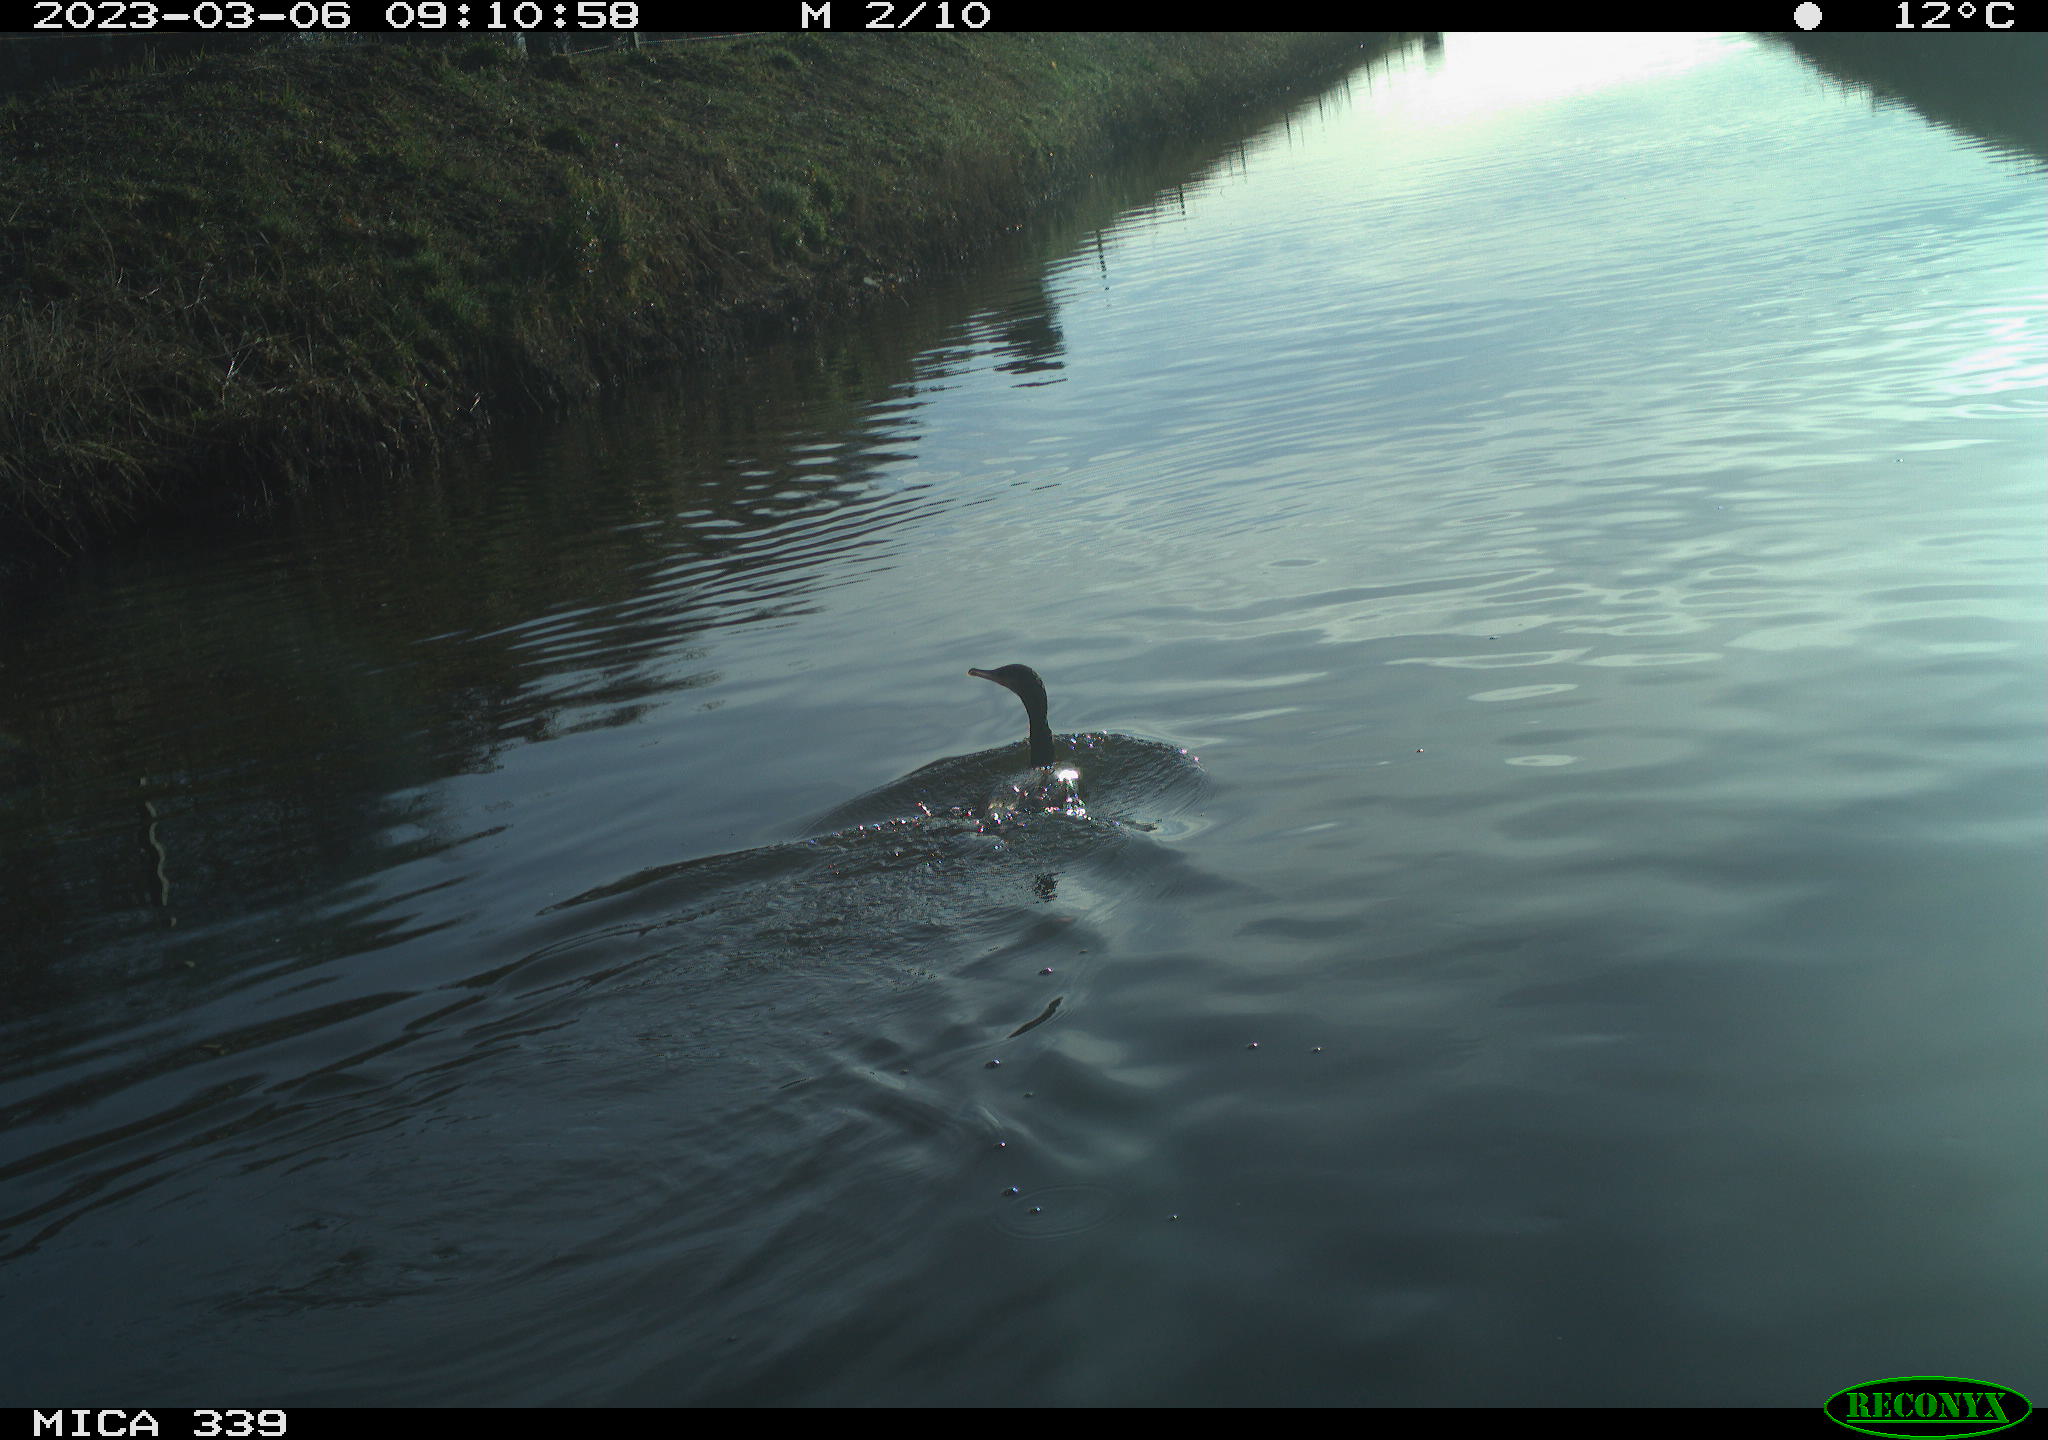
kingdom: Animalia
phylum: Chordata
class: Aves
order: Suliformes
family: Phalacrocoracidae
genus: Phalacrocorax
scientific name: Phalacrocorax carbo
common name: Great cormorant
